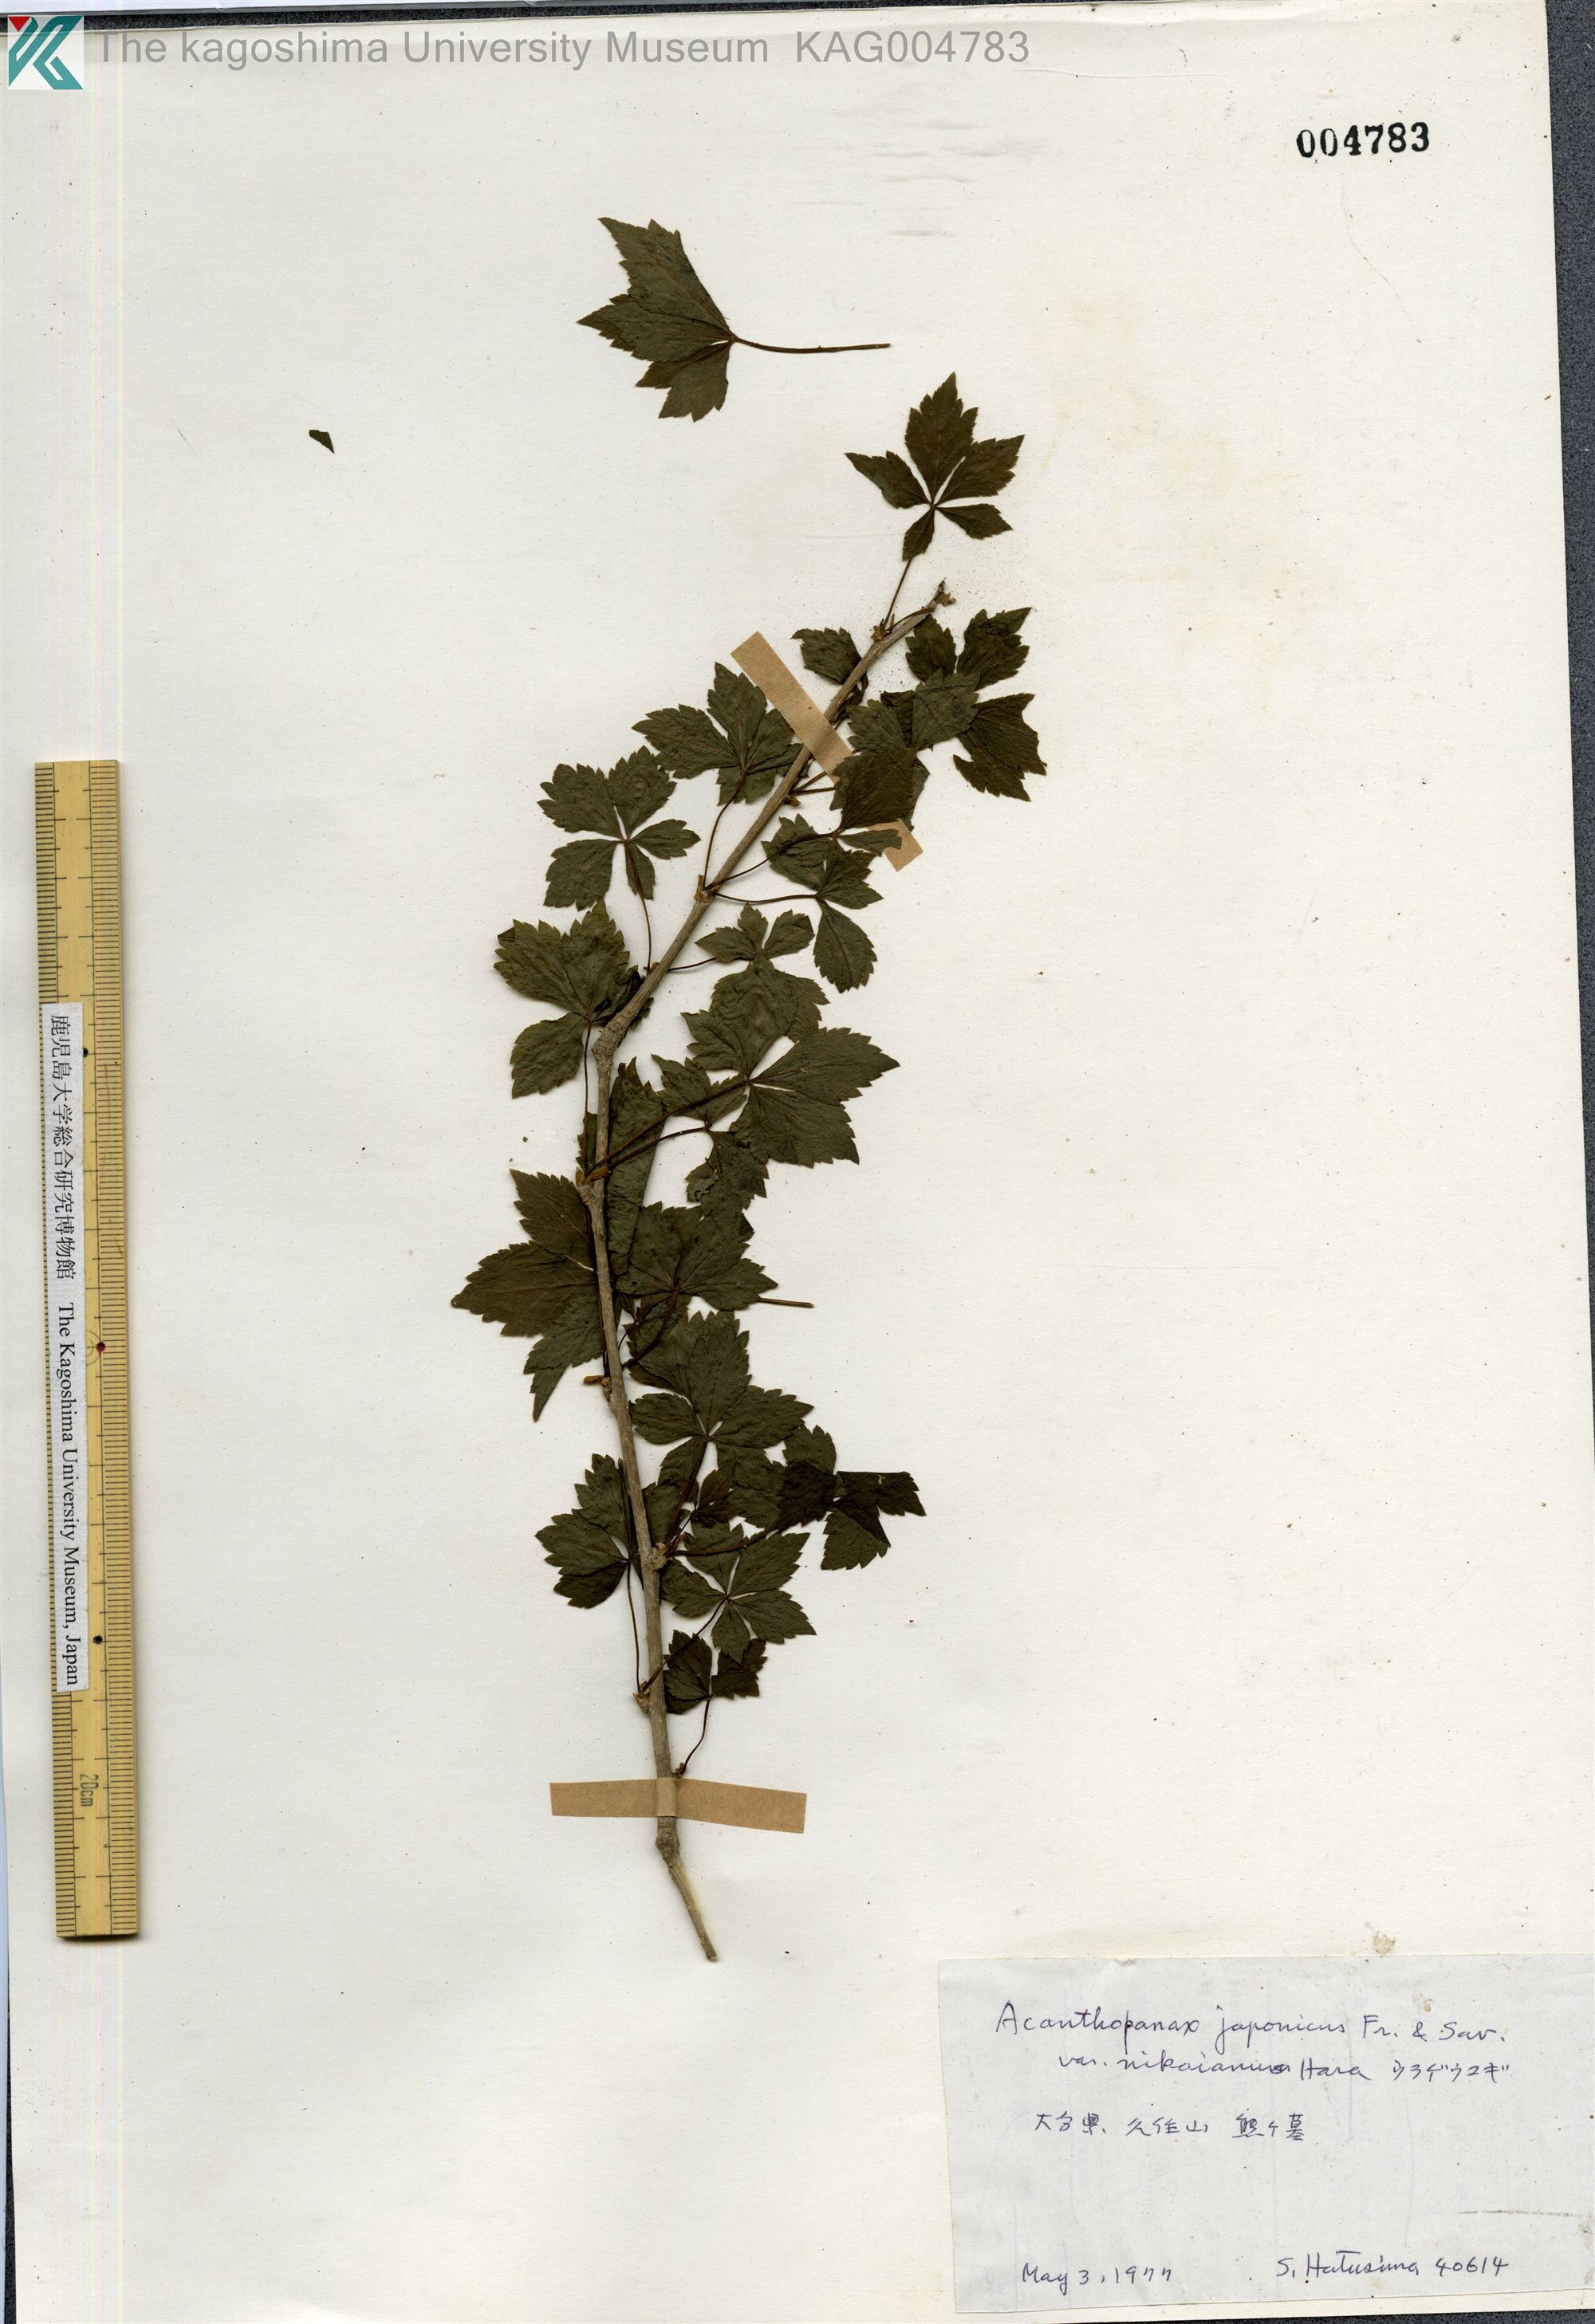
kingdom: Plantae
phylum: Tracheophyta
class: Magnoliopsida
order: Apiales
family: Araliaceae
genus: Eleutherococcus
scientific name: Eleutherococcus nikaianus
